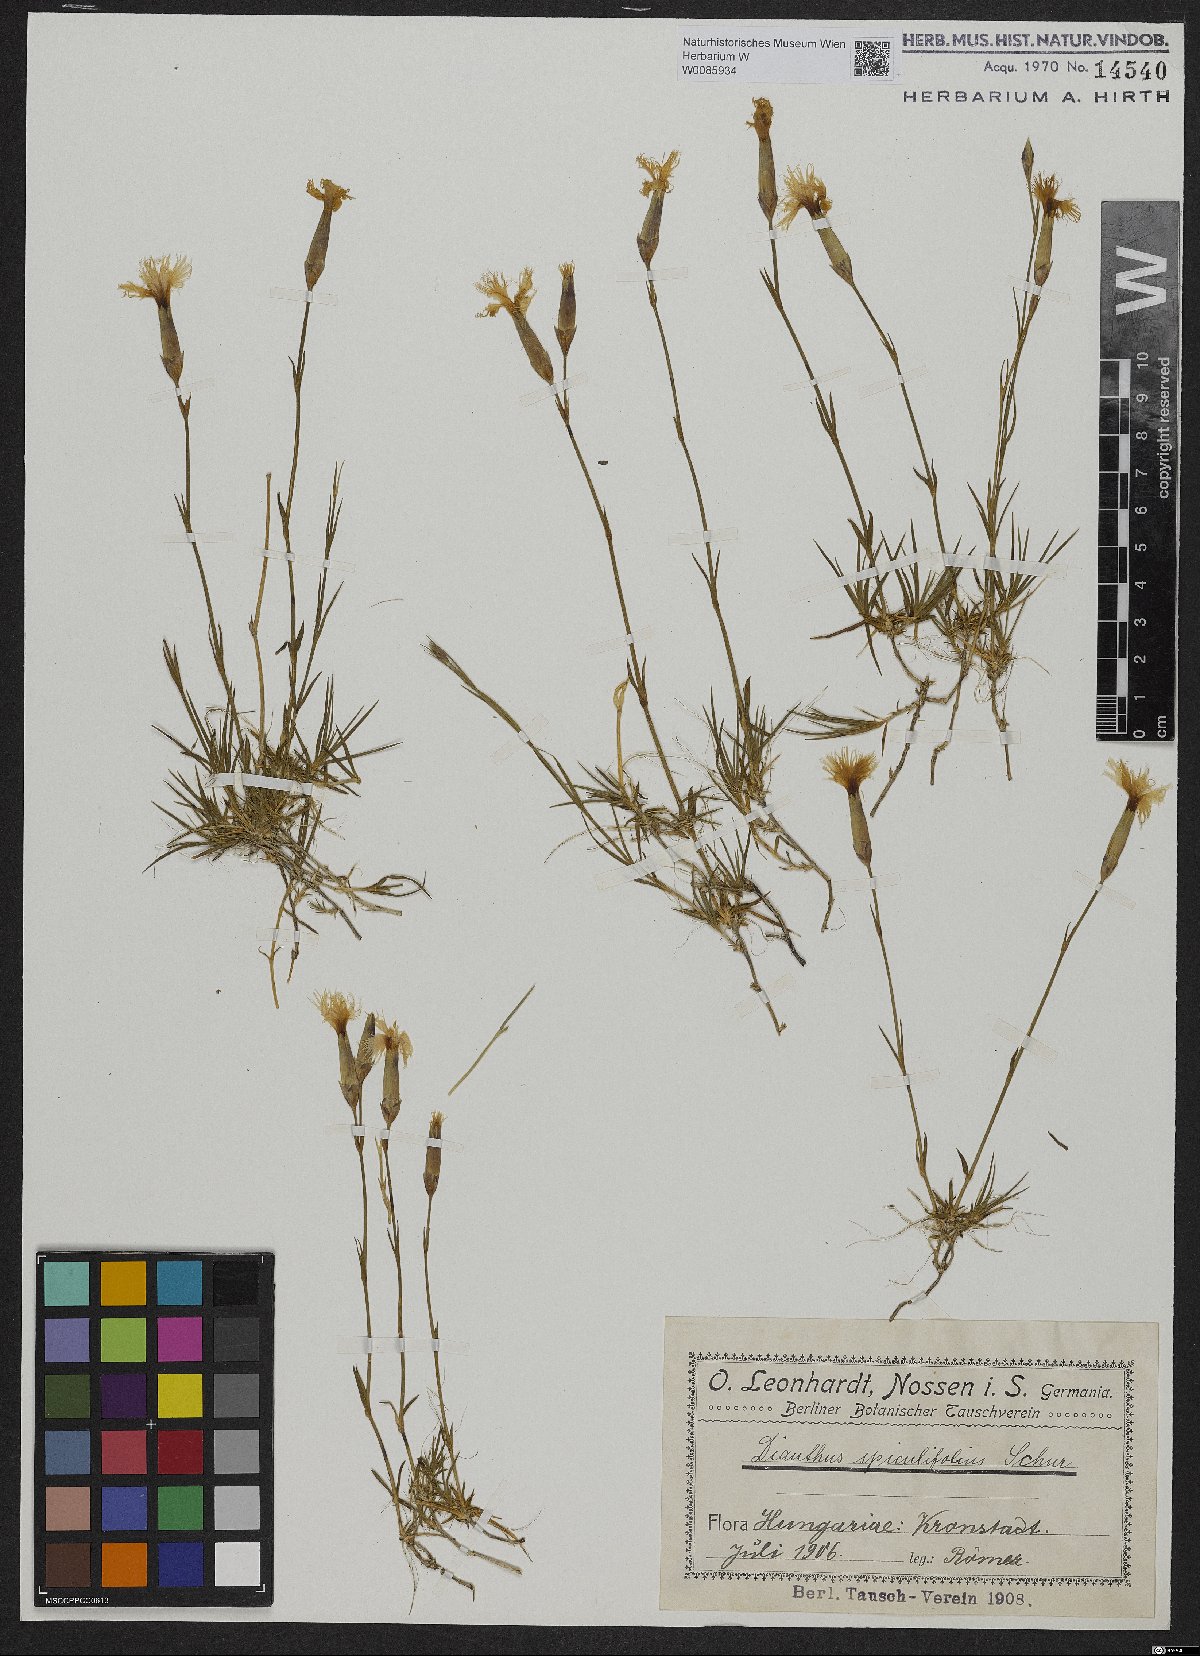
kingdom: Plantae
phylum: Tracheophyta
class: Magnoliopsida
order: Caryophyllales
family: Caryophyllaceae
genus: Dianthus
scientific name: Dianthus spiculifolius
